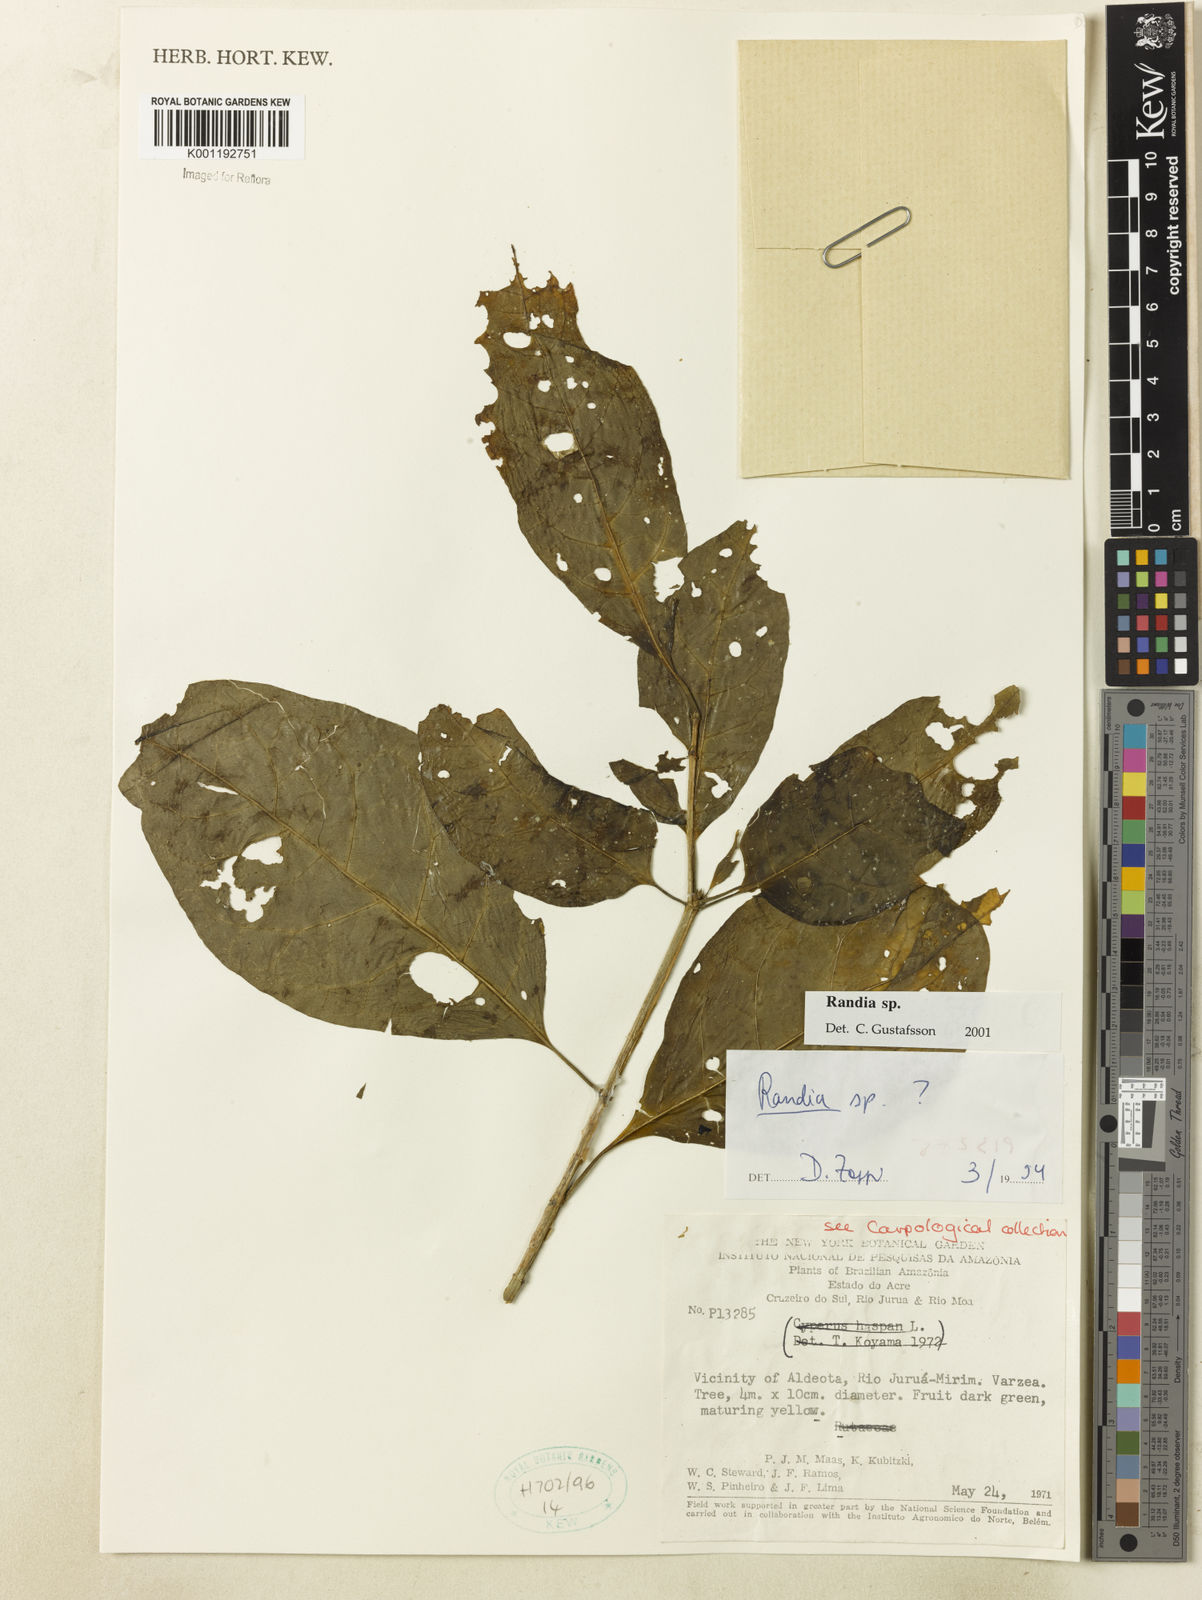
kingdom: Plantae
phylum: Tracheophyta
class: Magnoliopsida
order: Gentianales
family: Rubiaceae
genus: Randia
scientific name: Randia
